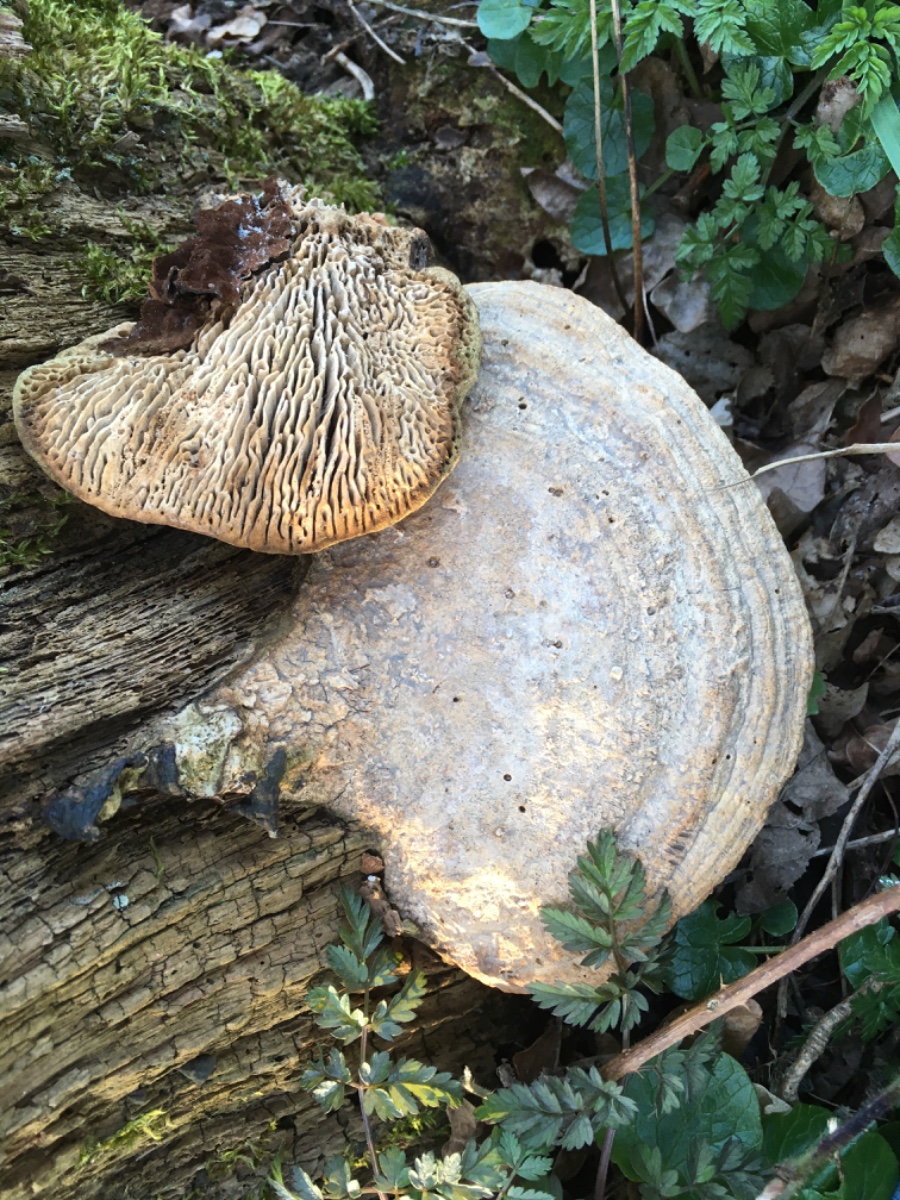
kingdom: Fungi
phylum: Basidiomycota
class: Agaricomycetes
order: Polyporales
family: Fomitopsidaceae
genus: Daedalea
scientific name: Daedalea quercina
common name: ege-labyrintsvamp
